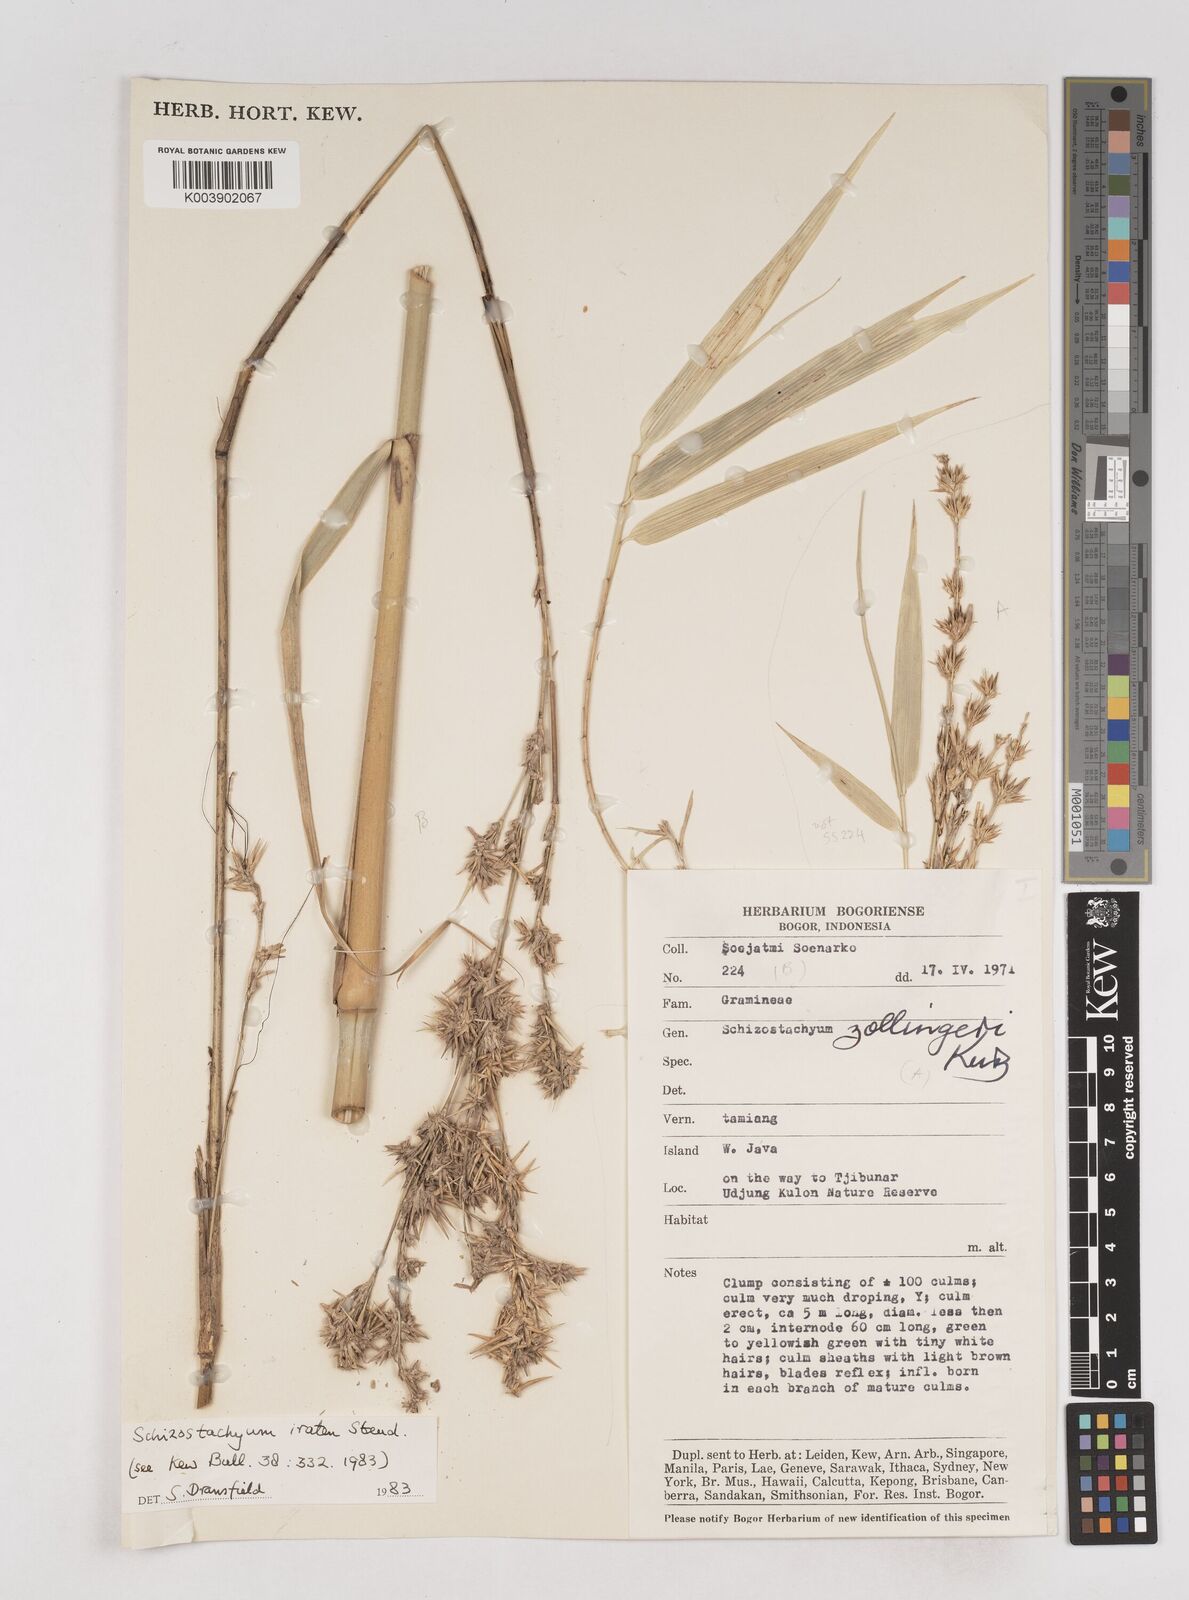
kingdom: Plantae
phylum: Tracheophyta
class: Liliopsida
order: Poales
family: Poaceae
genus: Schizostachyum
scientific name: Schizostachyum iraten
